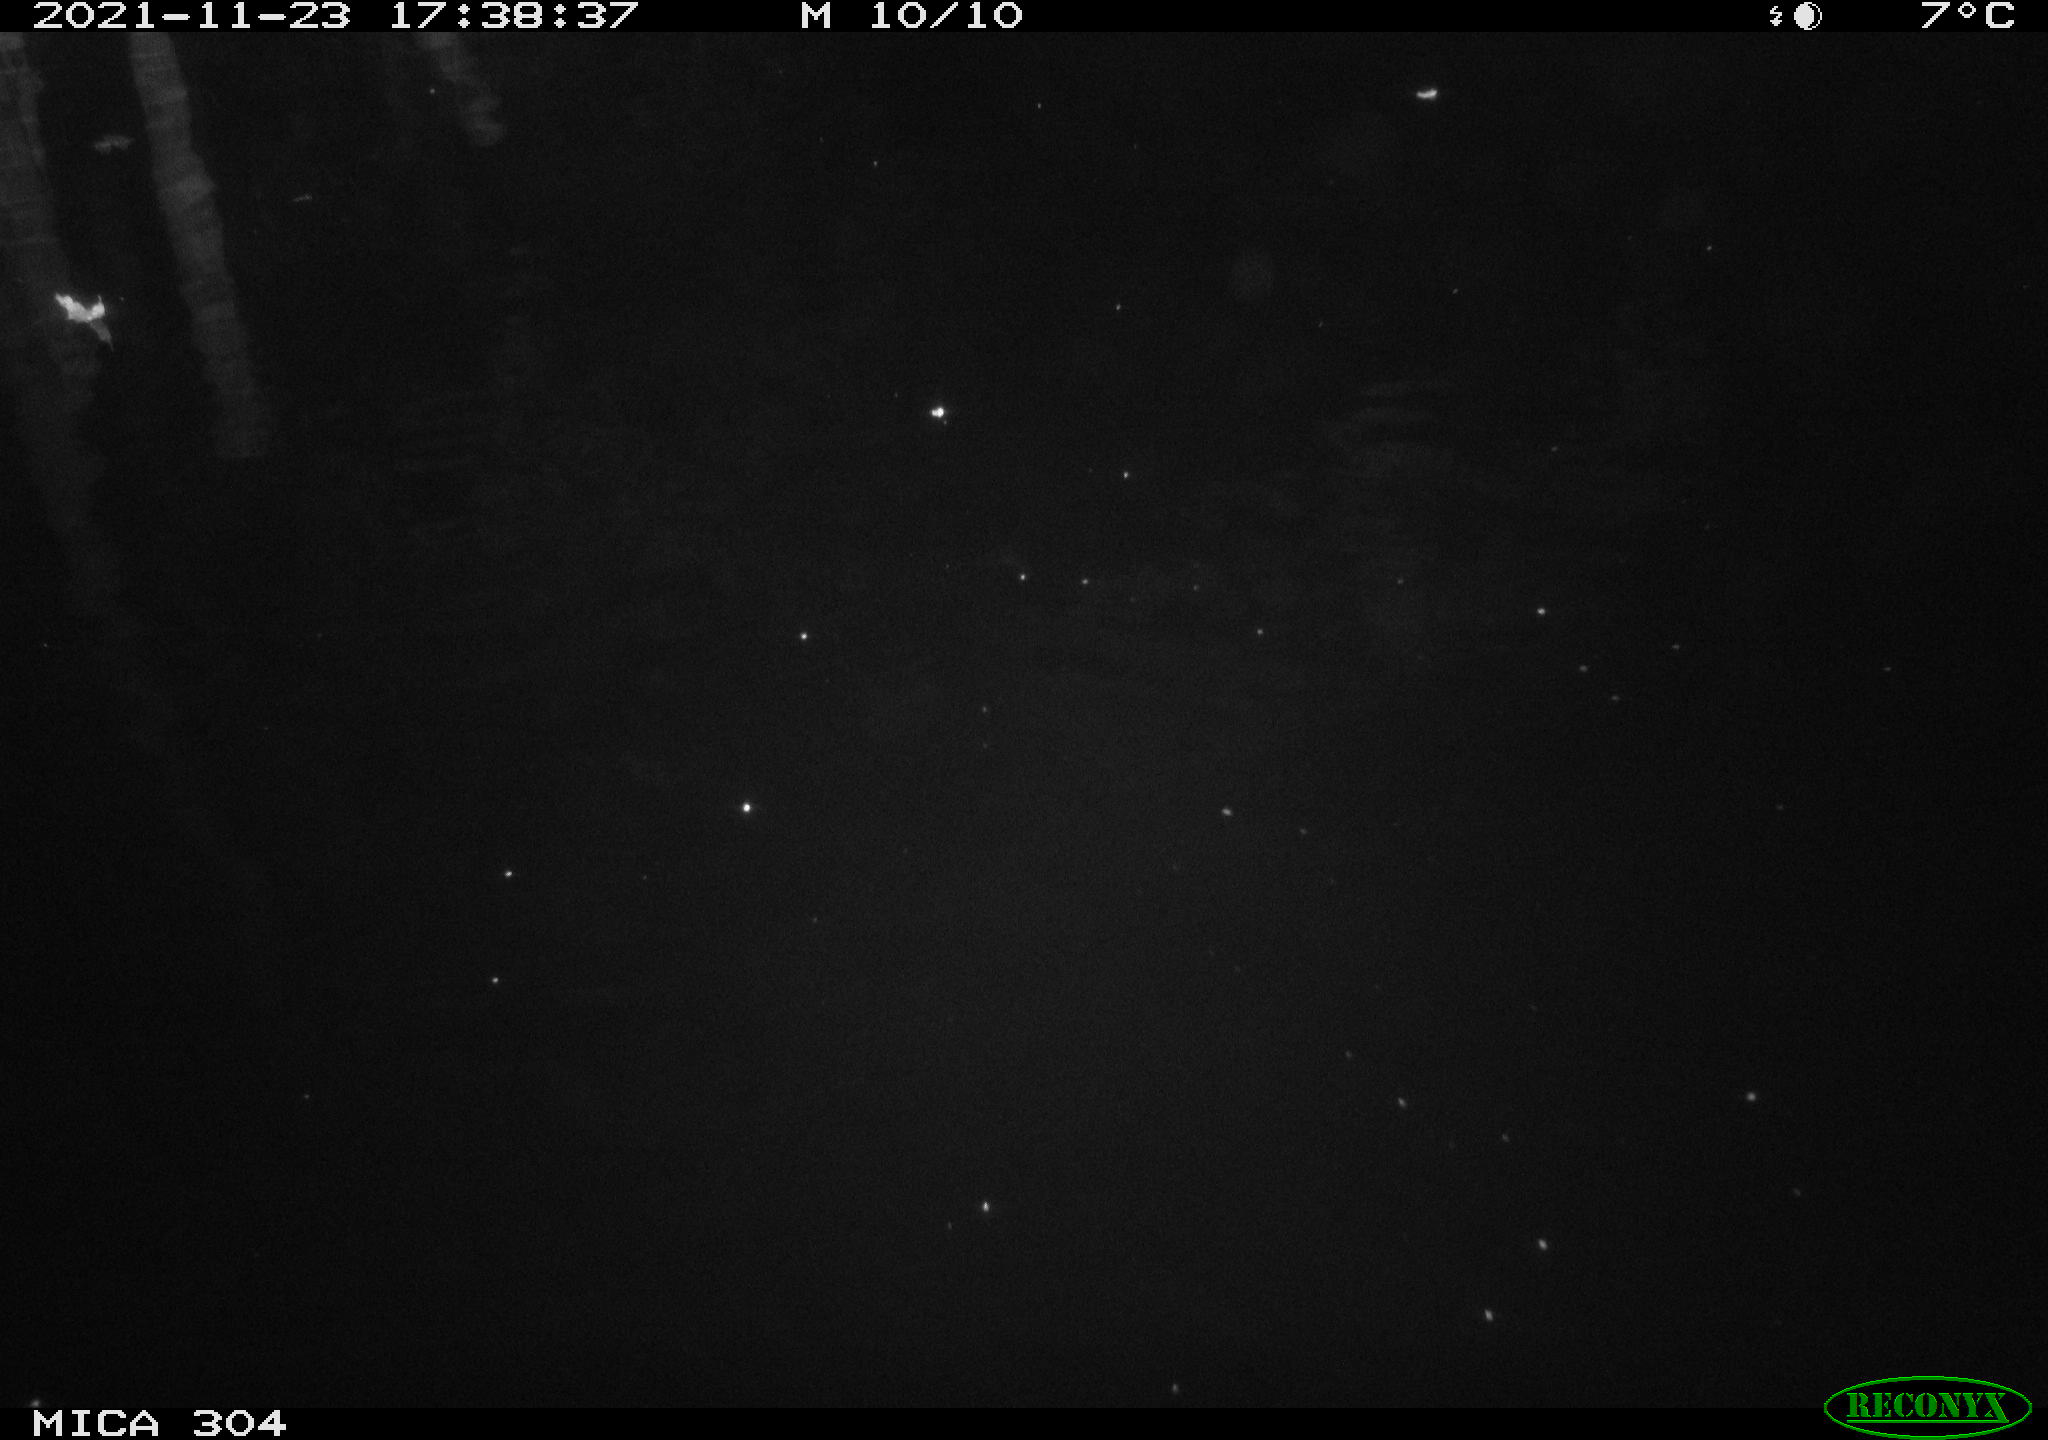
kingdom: Animalia
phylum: Chordata
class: Aves
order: Gruiformes
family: Rallidae
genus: Fulica
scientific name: Fulica atra
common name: Eurasian coot
